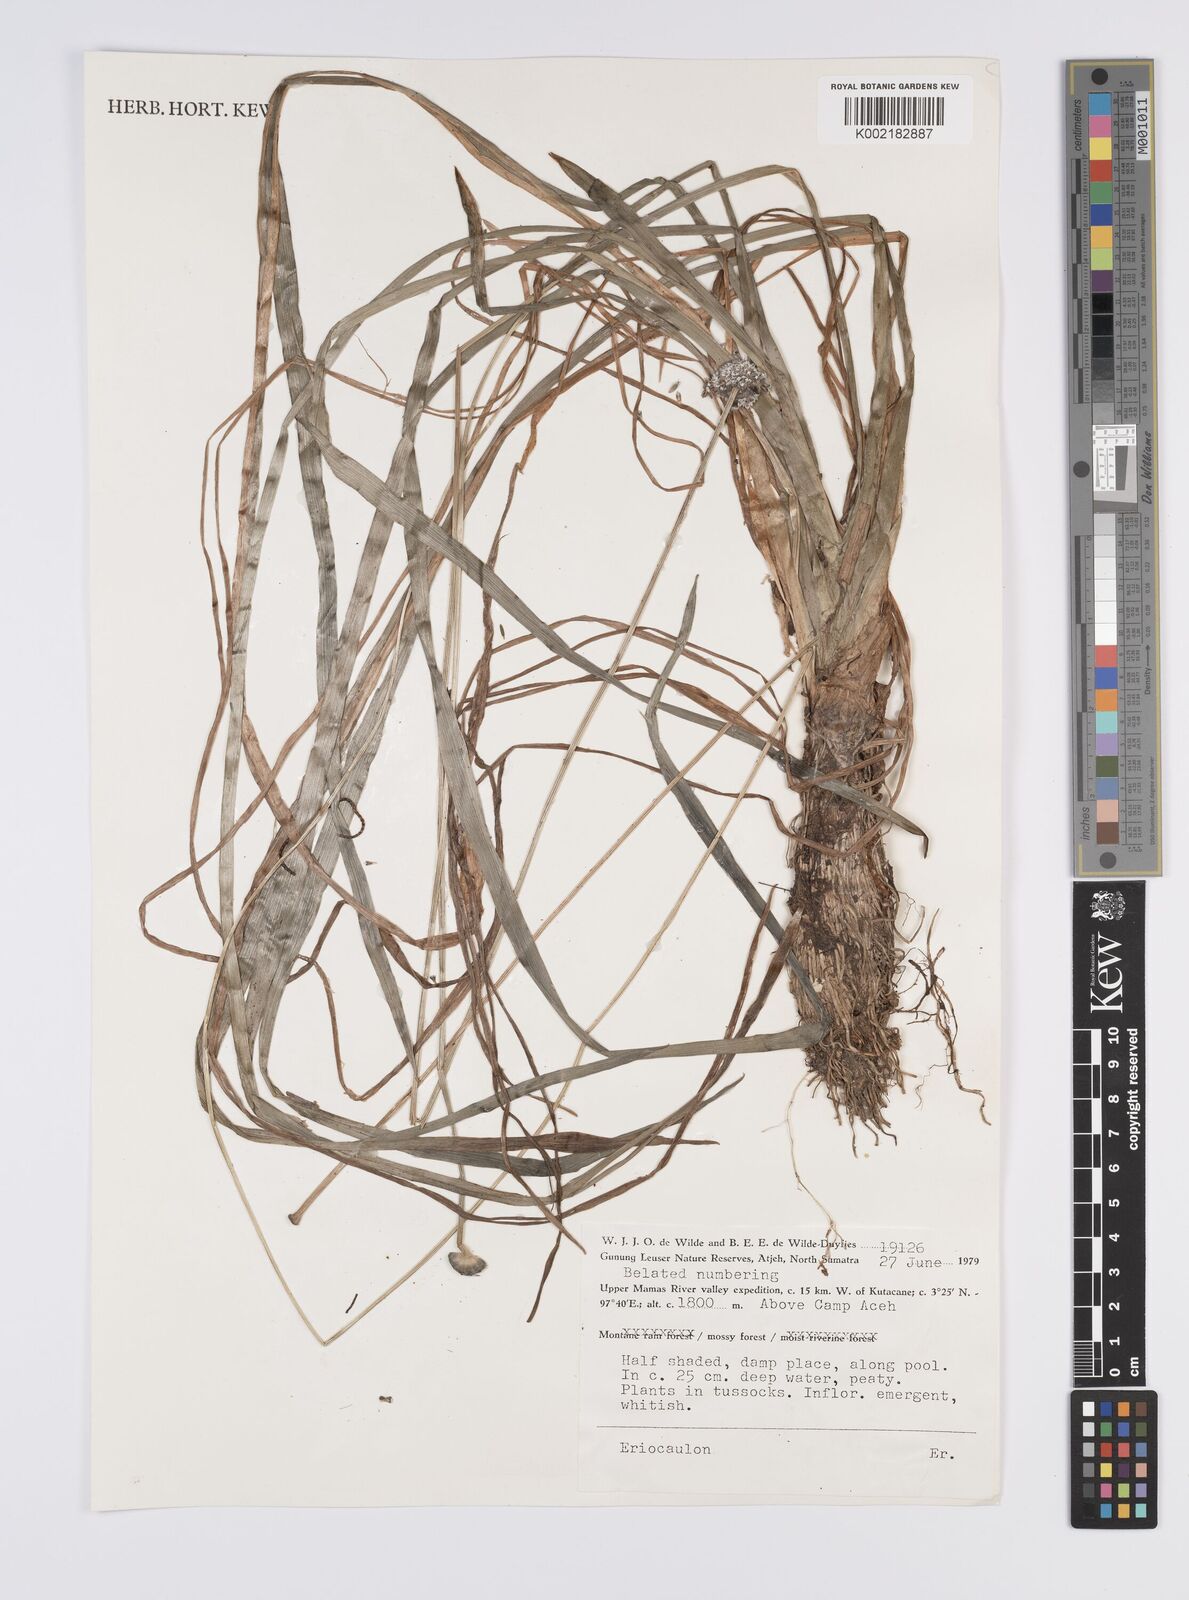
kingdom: Plantae
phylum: Tracheophyta
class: Liliopsida
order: Poales
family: Eriocaulaceae
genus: Eriocaulon
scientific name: Eriocaulon
